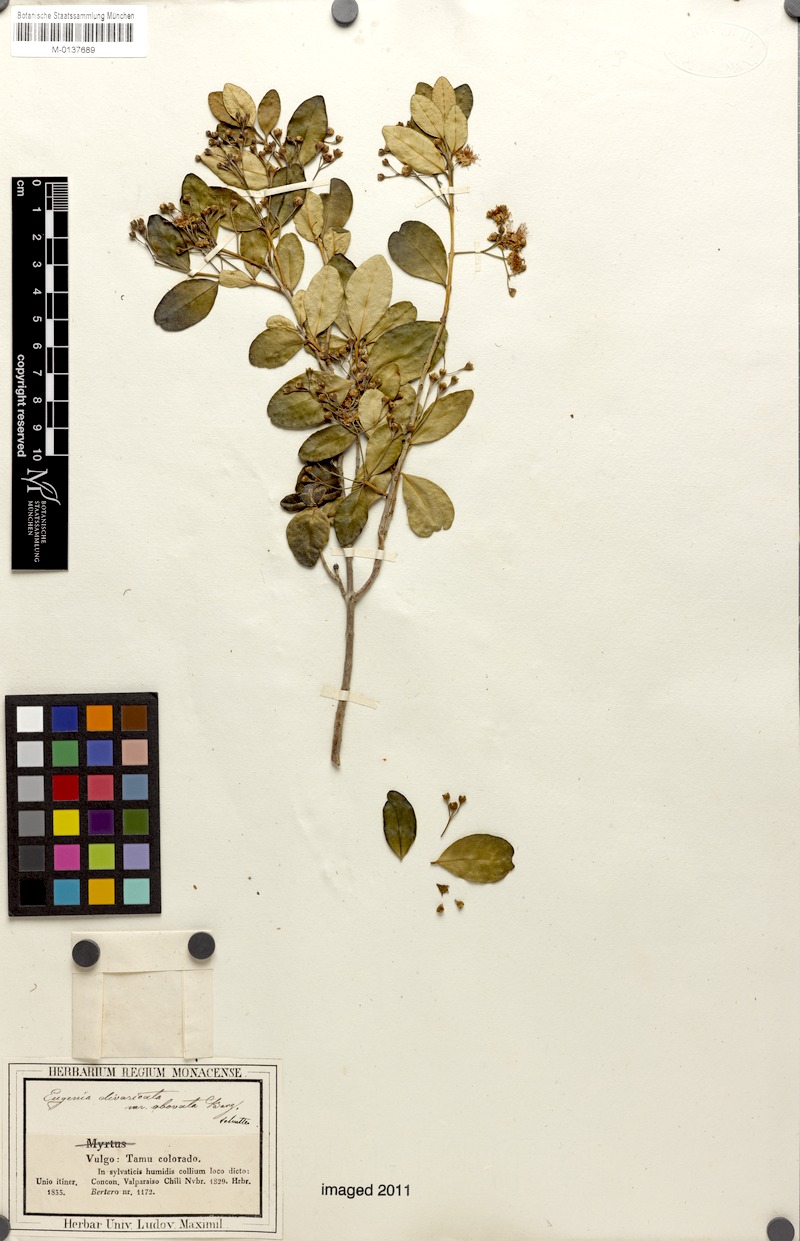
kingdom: Plantae
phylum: Tracheophyta
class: Magnoliopsida
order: Myrtales
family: Myrtaceae
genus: Blepharocalyx
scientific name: Blepharocalyx cruckshanksii
